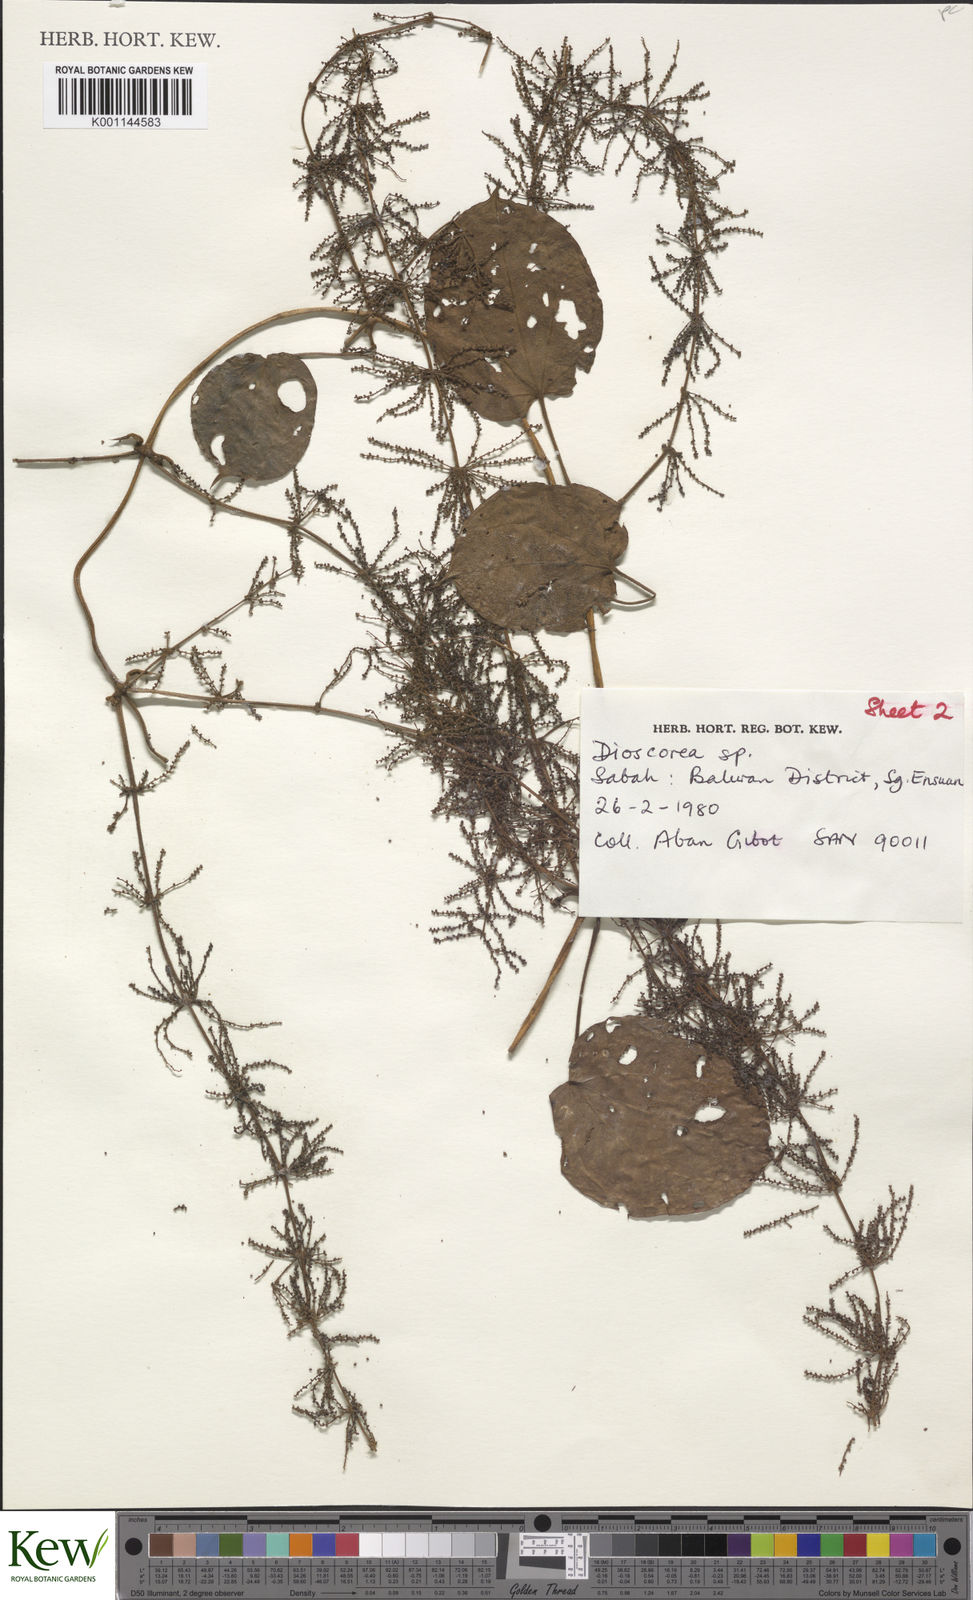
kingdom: Plantae
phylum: Tracheophyta
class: Liliopsida
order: Dioscoreales
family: Dioscoreaceae
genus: Dioscorea
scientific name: Dioscorea pyrifolia
